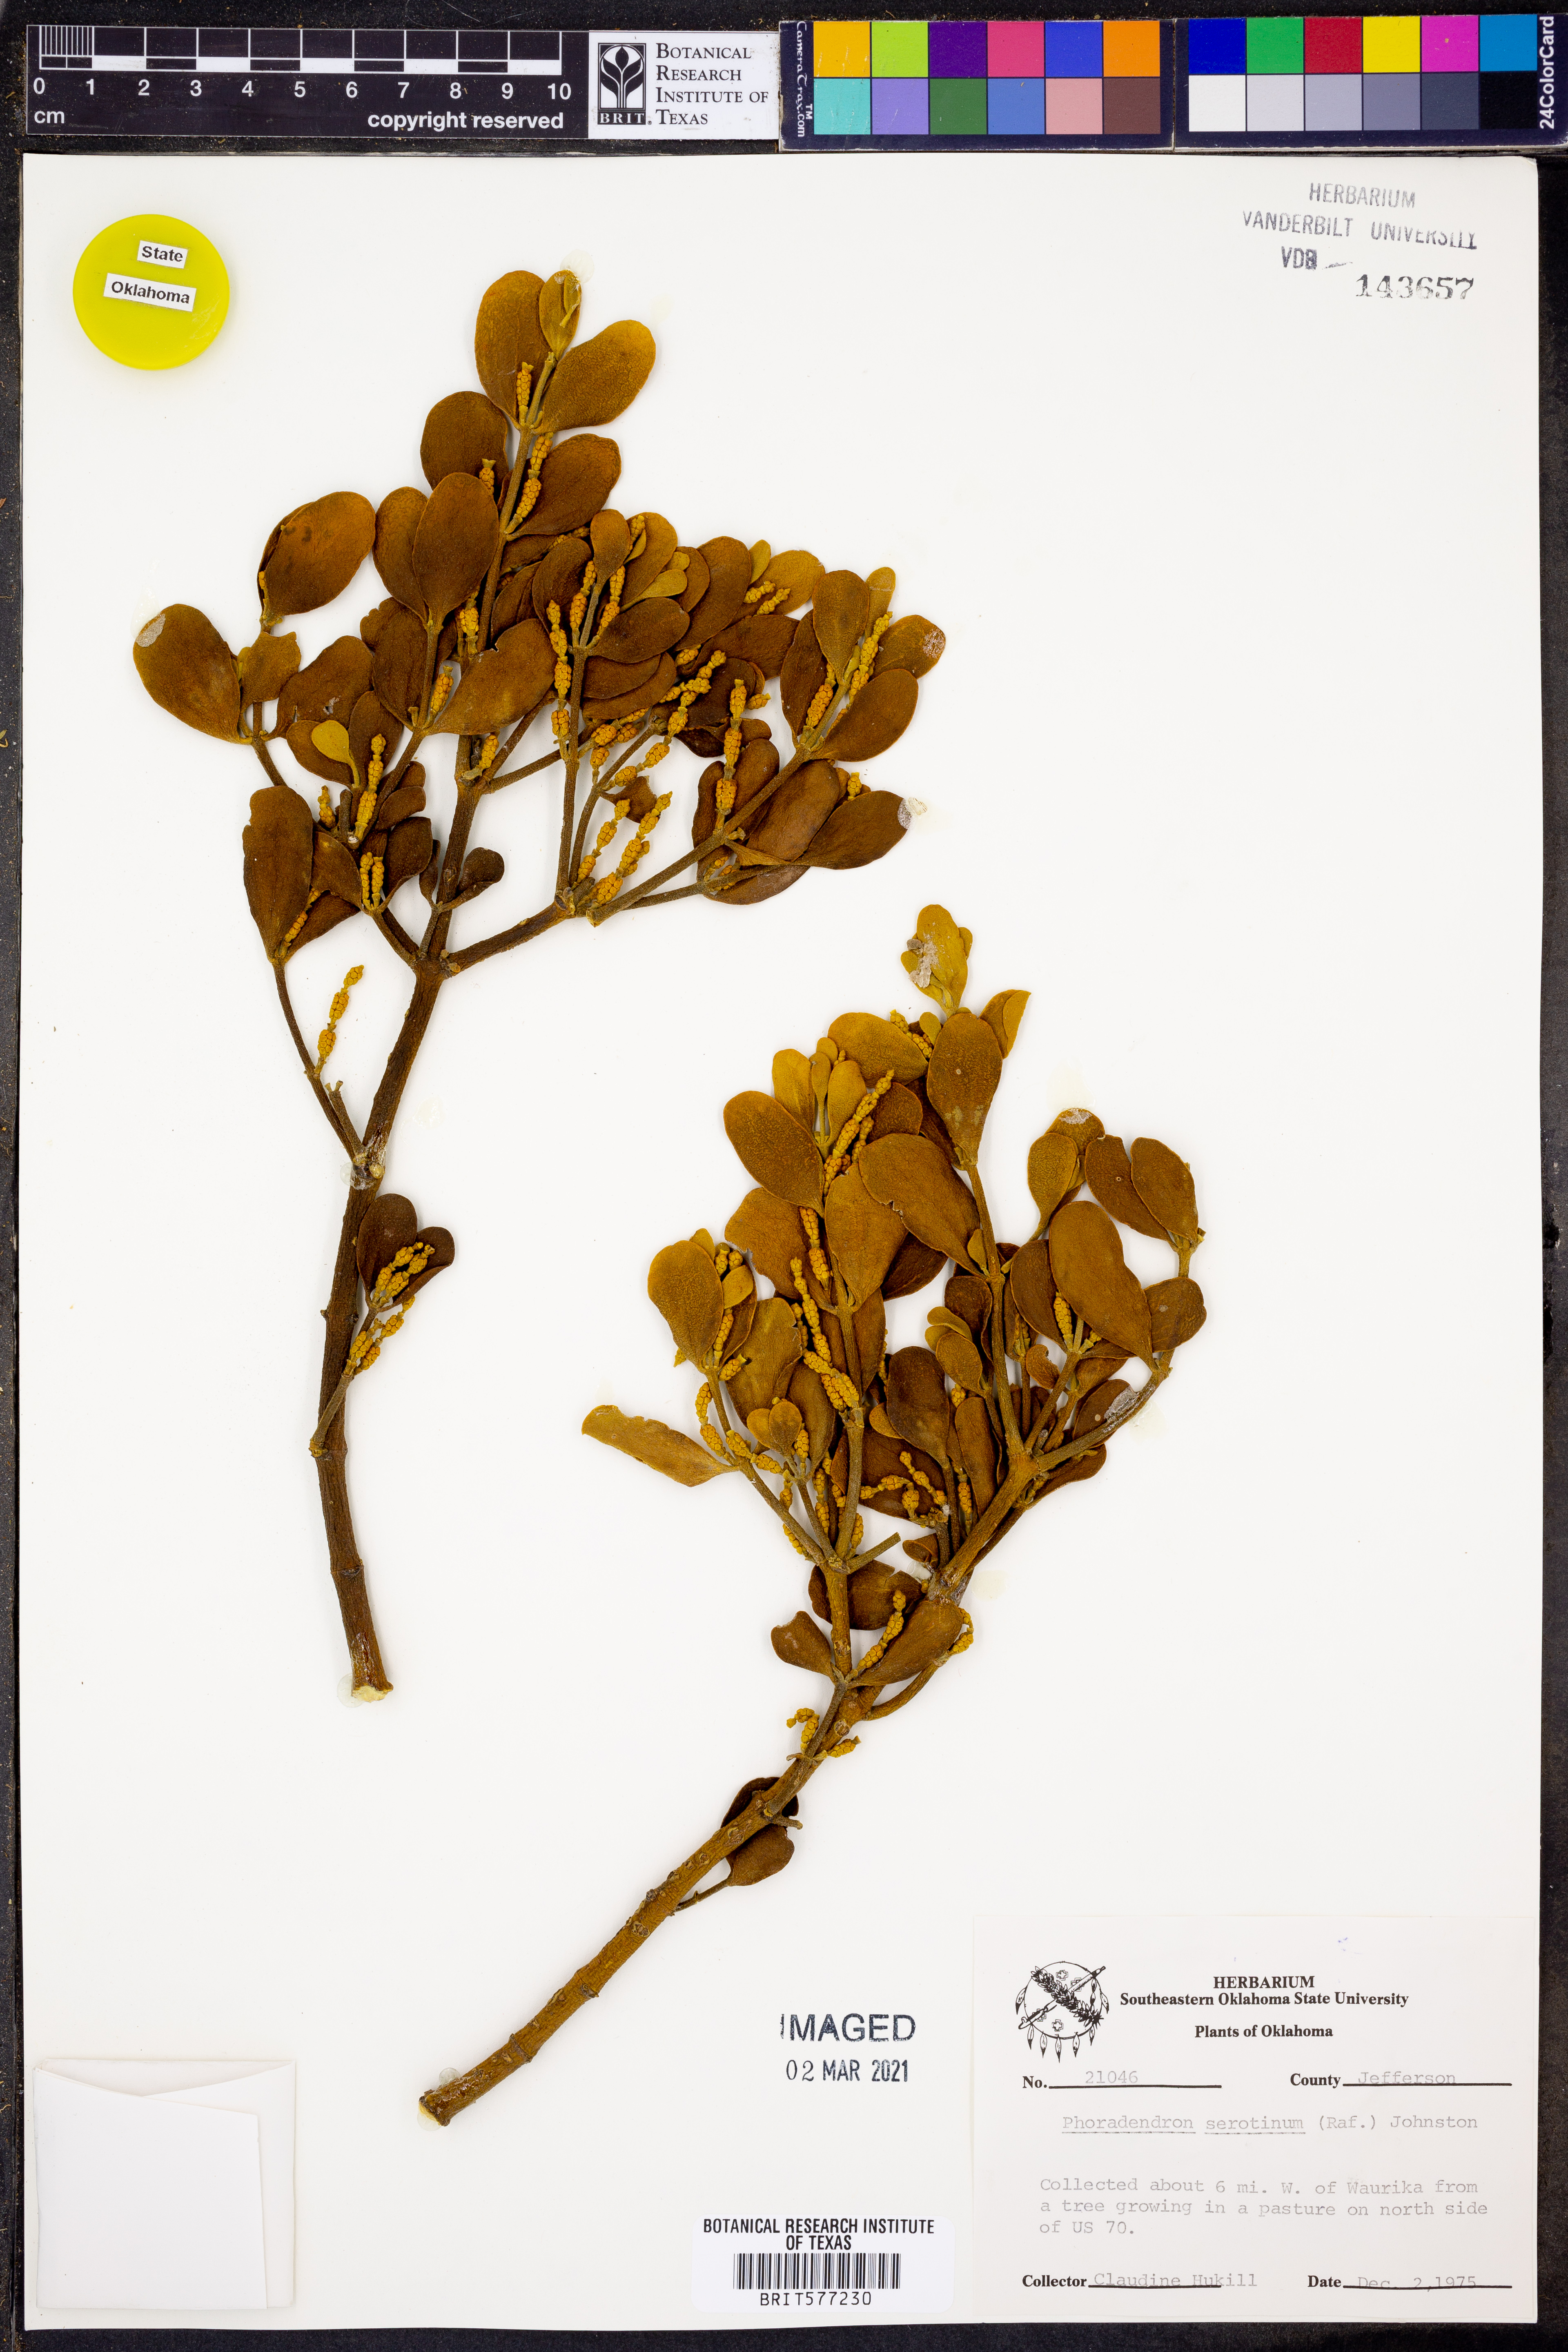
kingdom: Plantae
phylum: Tracheophyta
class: Magnoliopsida
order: Santalales
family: Viscaceae
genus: Phoradendron
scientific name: Phoradendron leucarpum
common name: Pacific mistletoe
